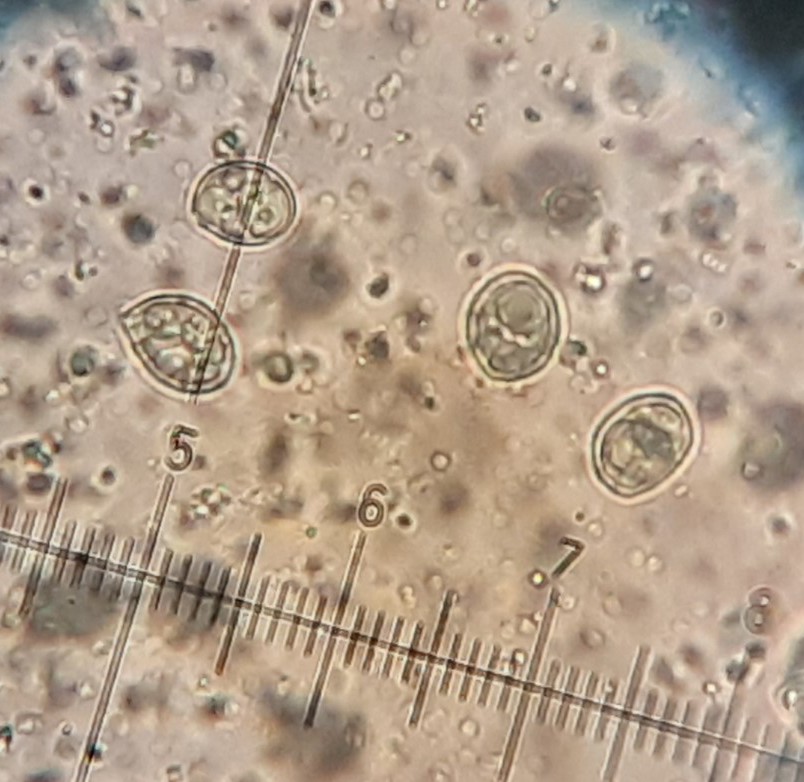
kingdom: Fungi
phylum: Basidiomycota
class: Agaricomycetes
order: Agaricales
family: Mycenaceae
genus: Mycena
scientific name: Mycena galericulata
